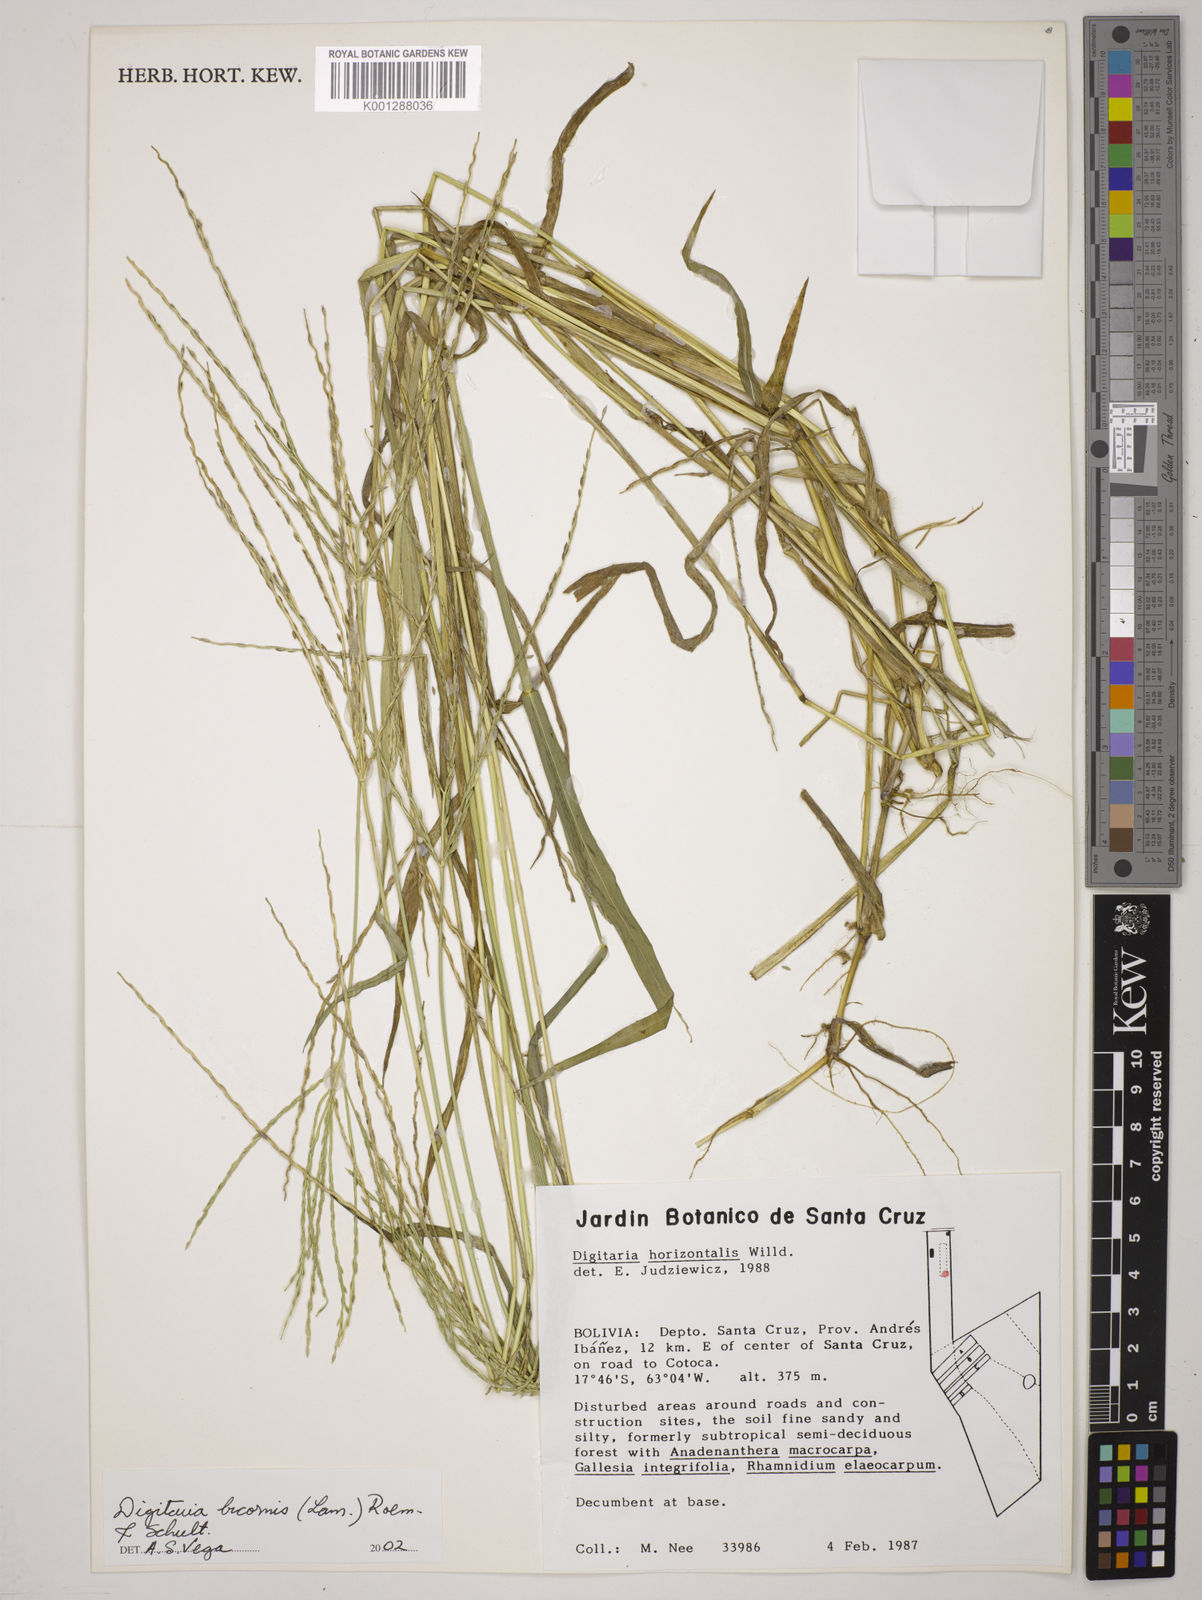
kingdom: Plantae
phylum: Tracheophyta
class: Liliopsida
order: Poales
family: Poaceae
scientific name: Poaceae
